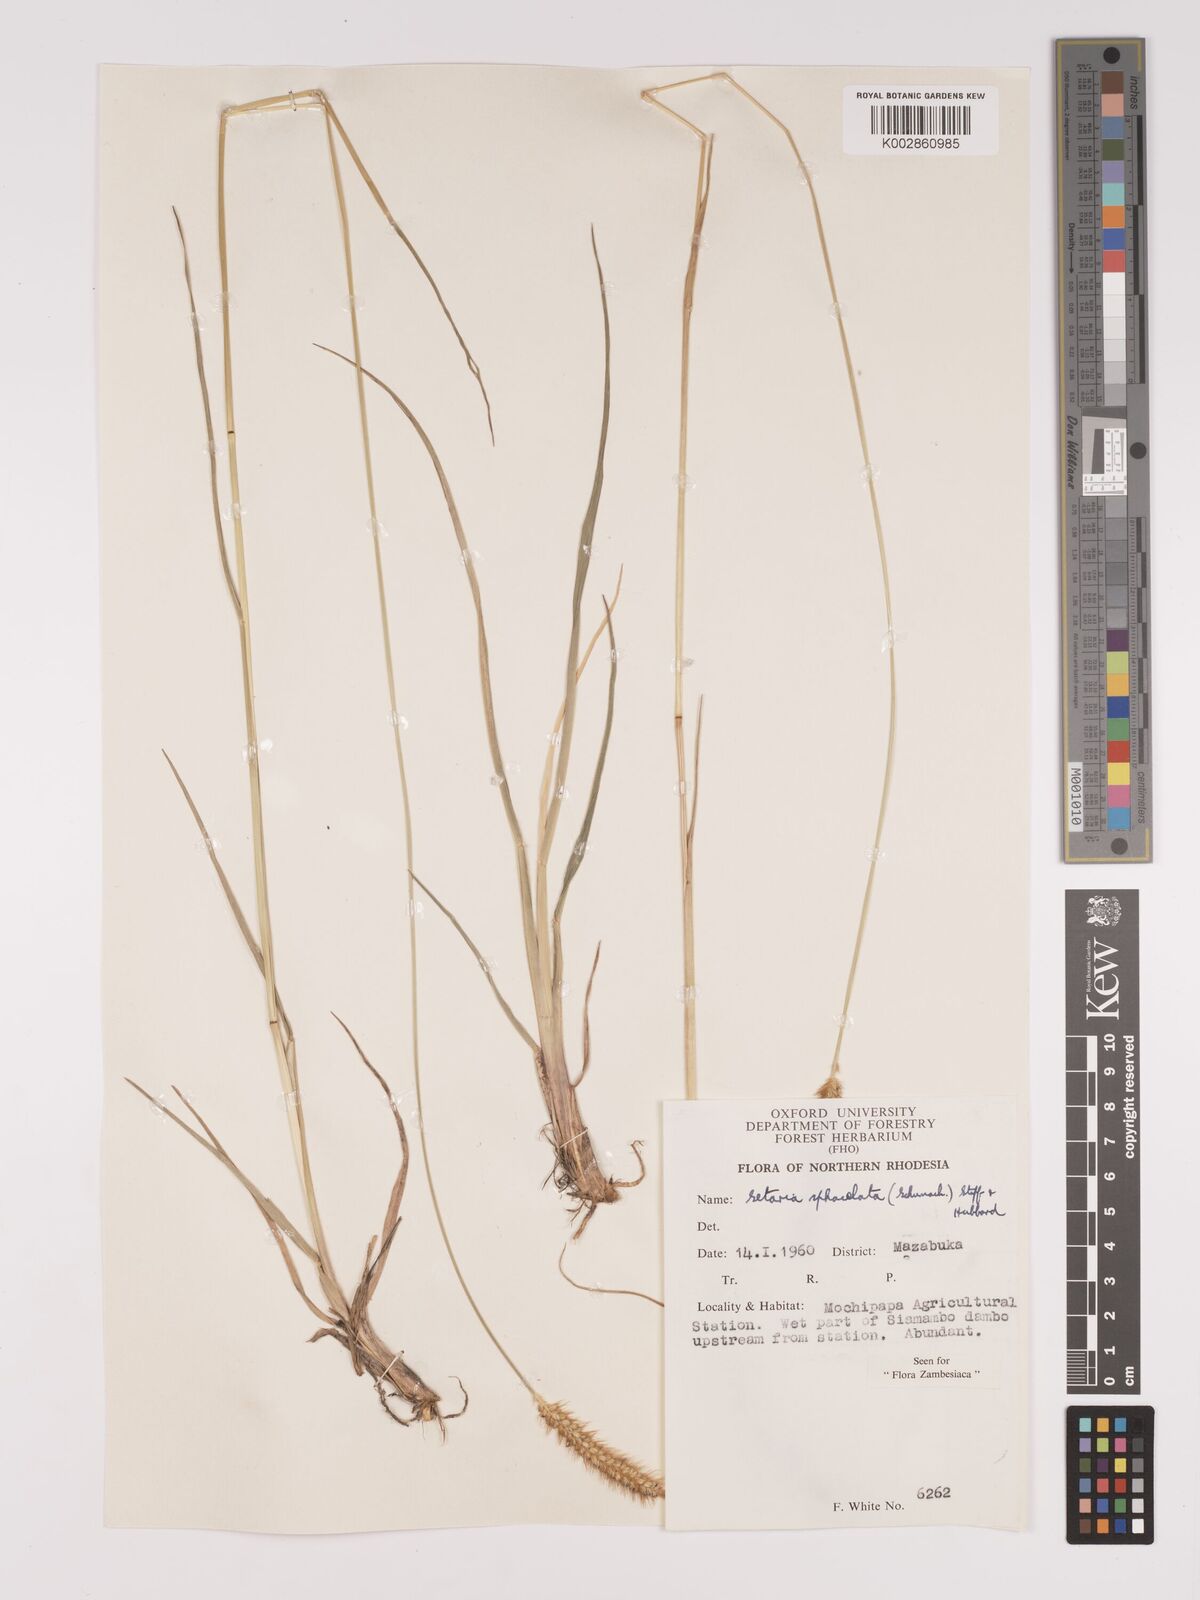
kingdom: Plantae
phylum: Tracheophyta
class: Liliopsida
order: Poales
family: Poaceae
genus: Setaria
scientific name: Setaria
